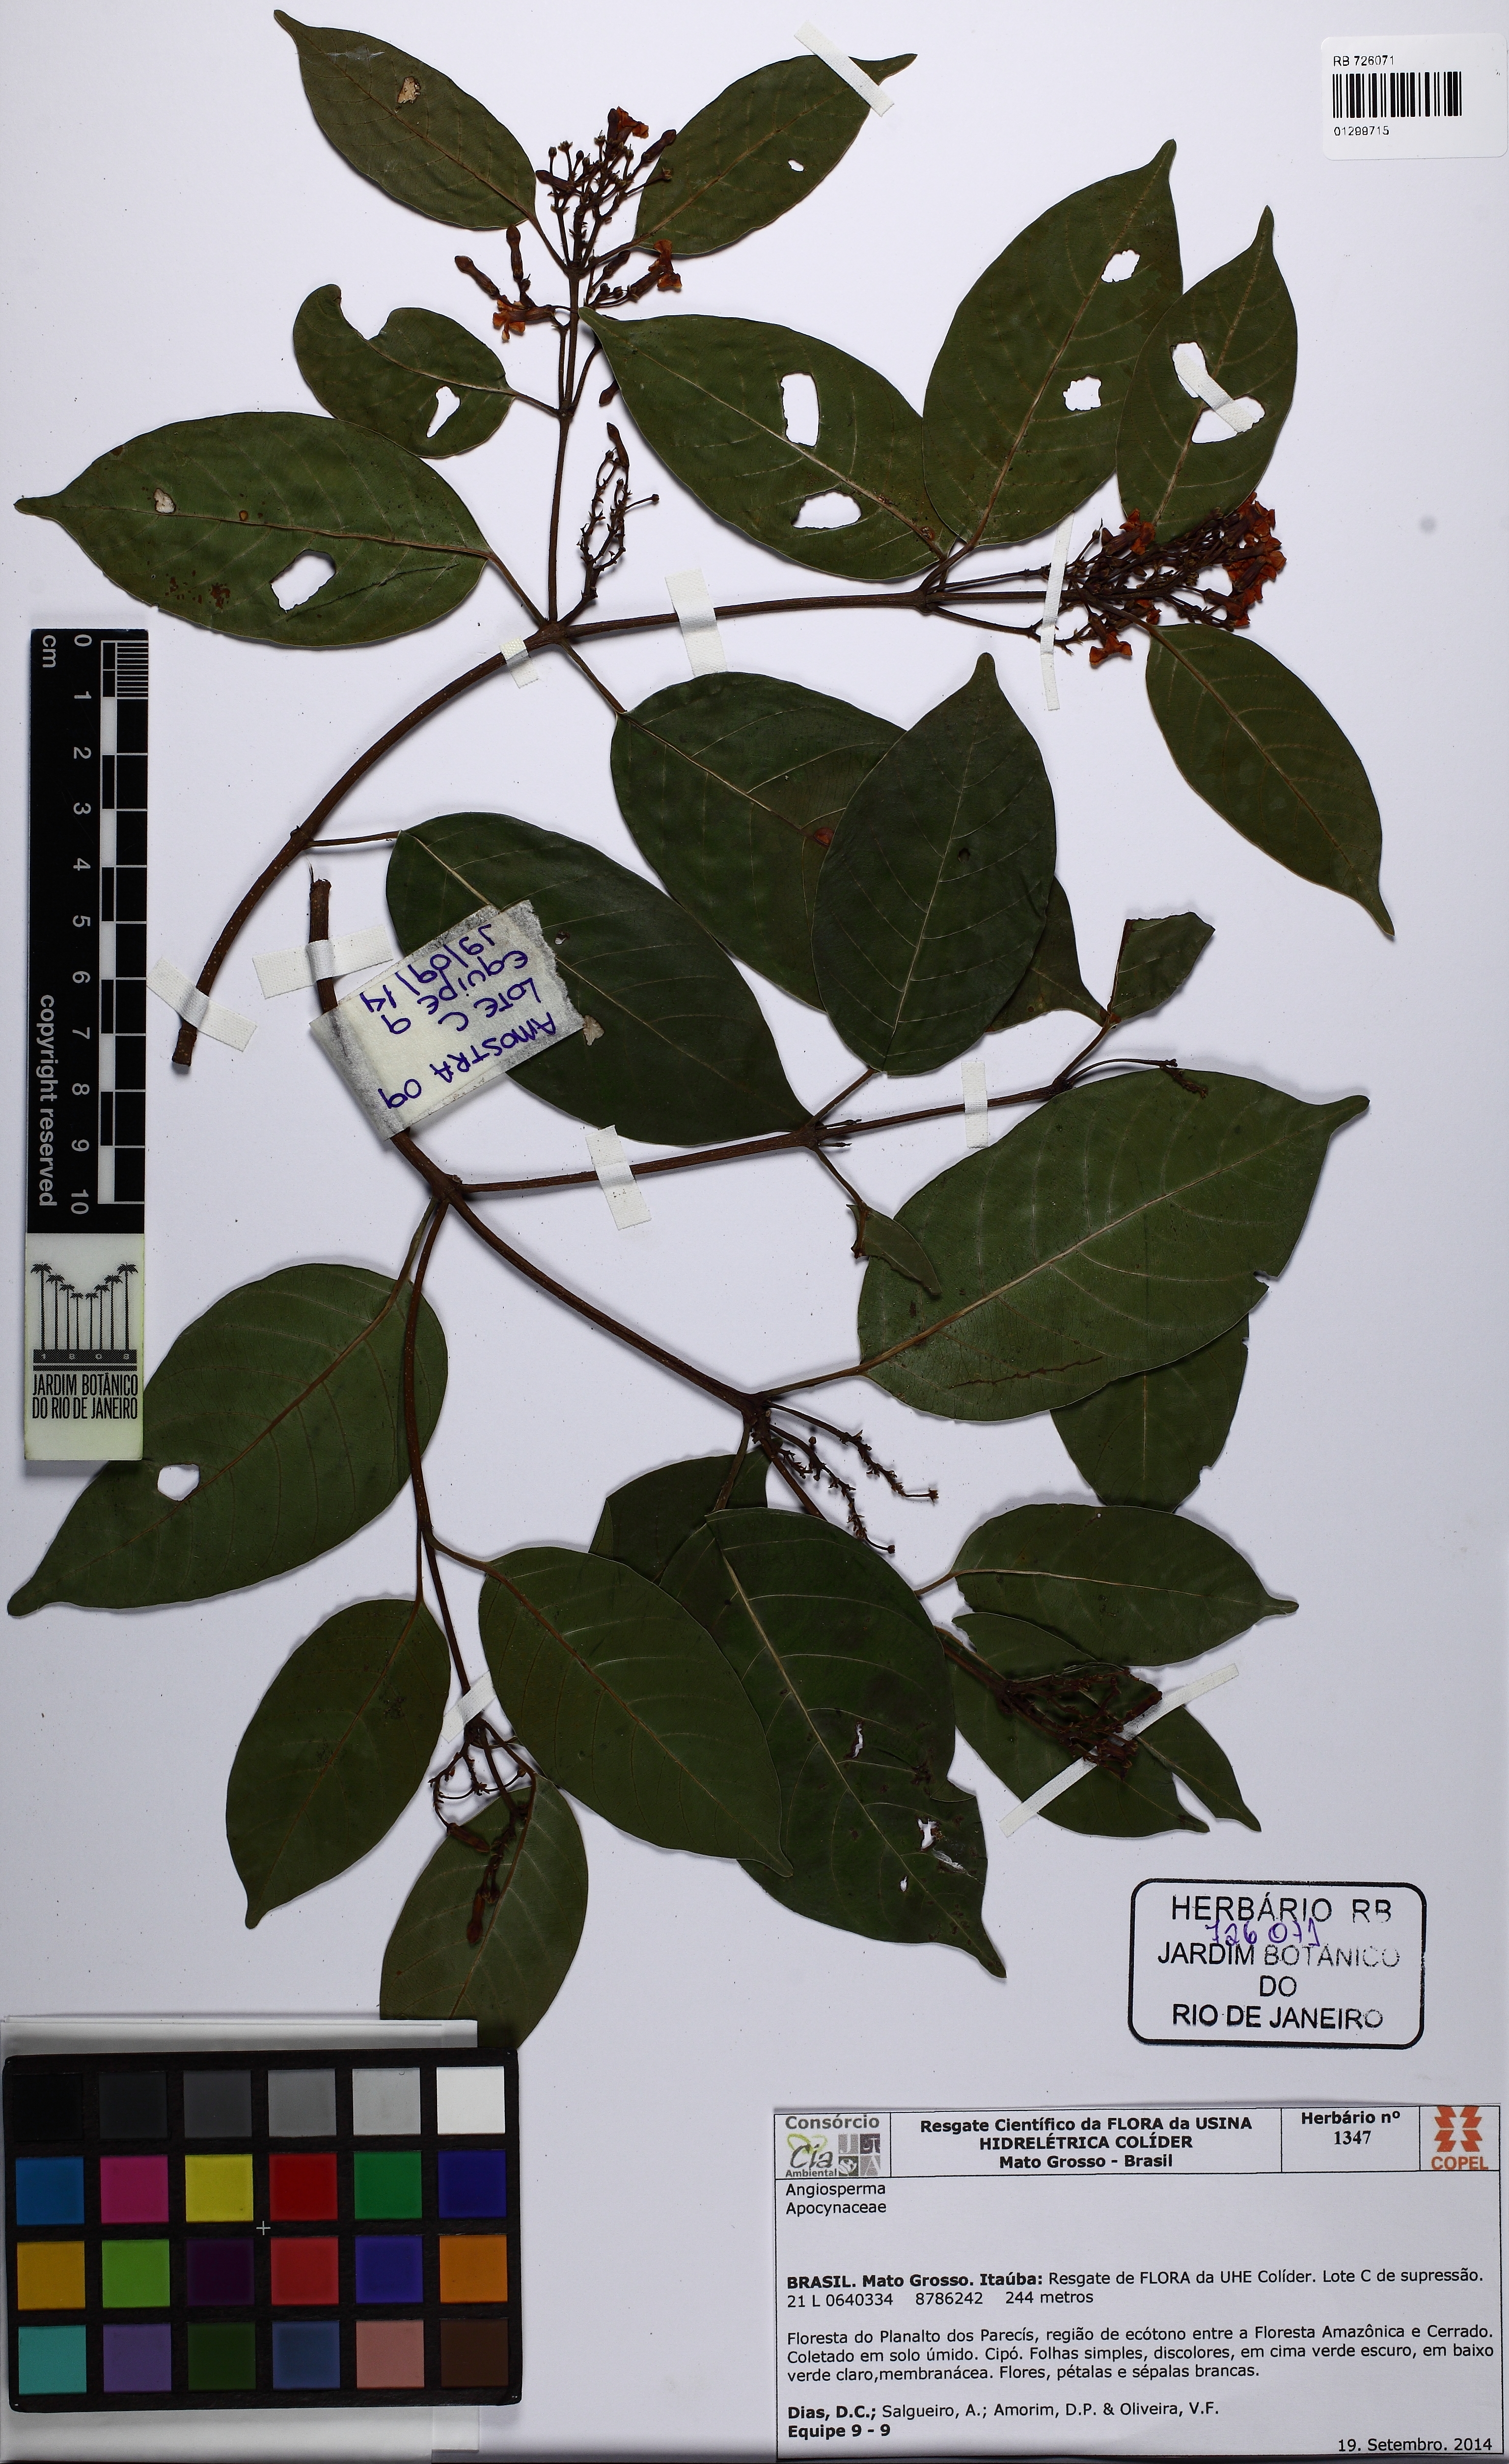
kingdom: Plantae
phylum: Tracheophyta
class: Magnoliopsida
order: Gentianales
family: Apocynaceae
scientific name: Apocynaceae
